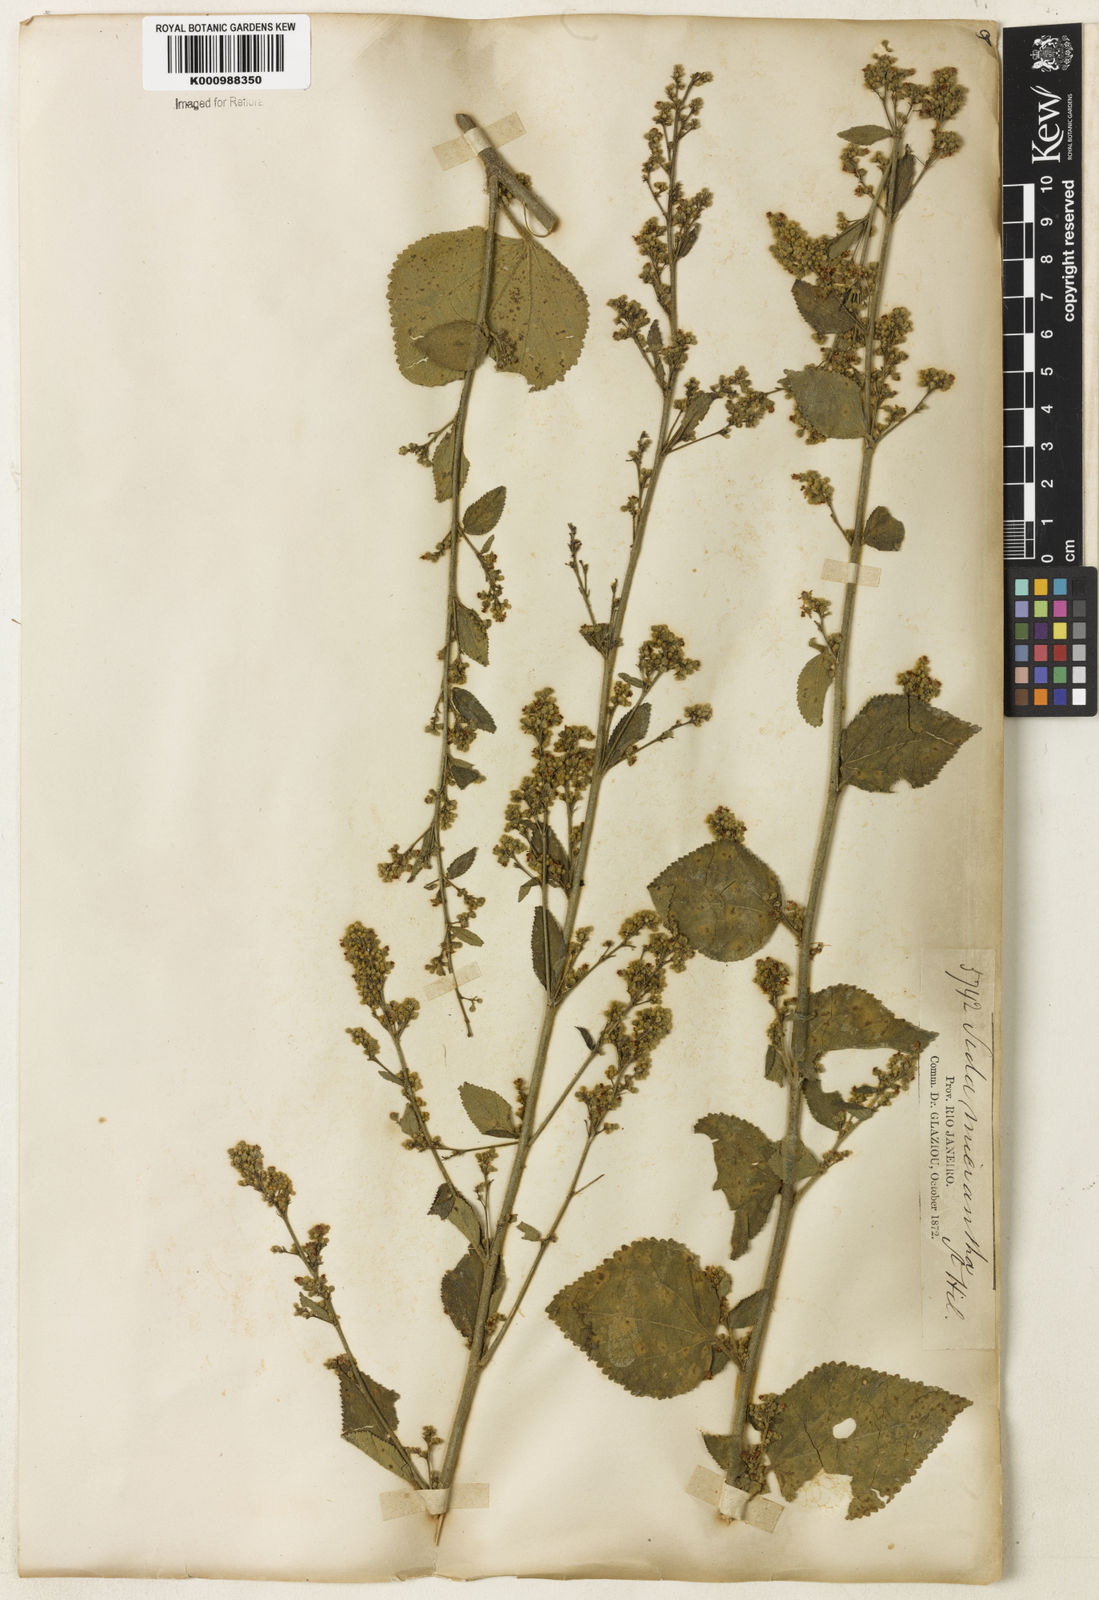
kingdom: Plantae
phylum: Tracheophyta
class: Magnoliopsida
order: Malvales
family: Malvaceae
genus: Sidastrum
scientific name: Sidastrum micranthum
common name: Dainty sandmallow
